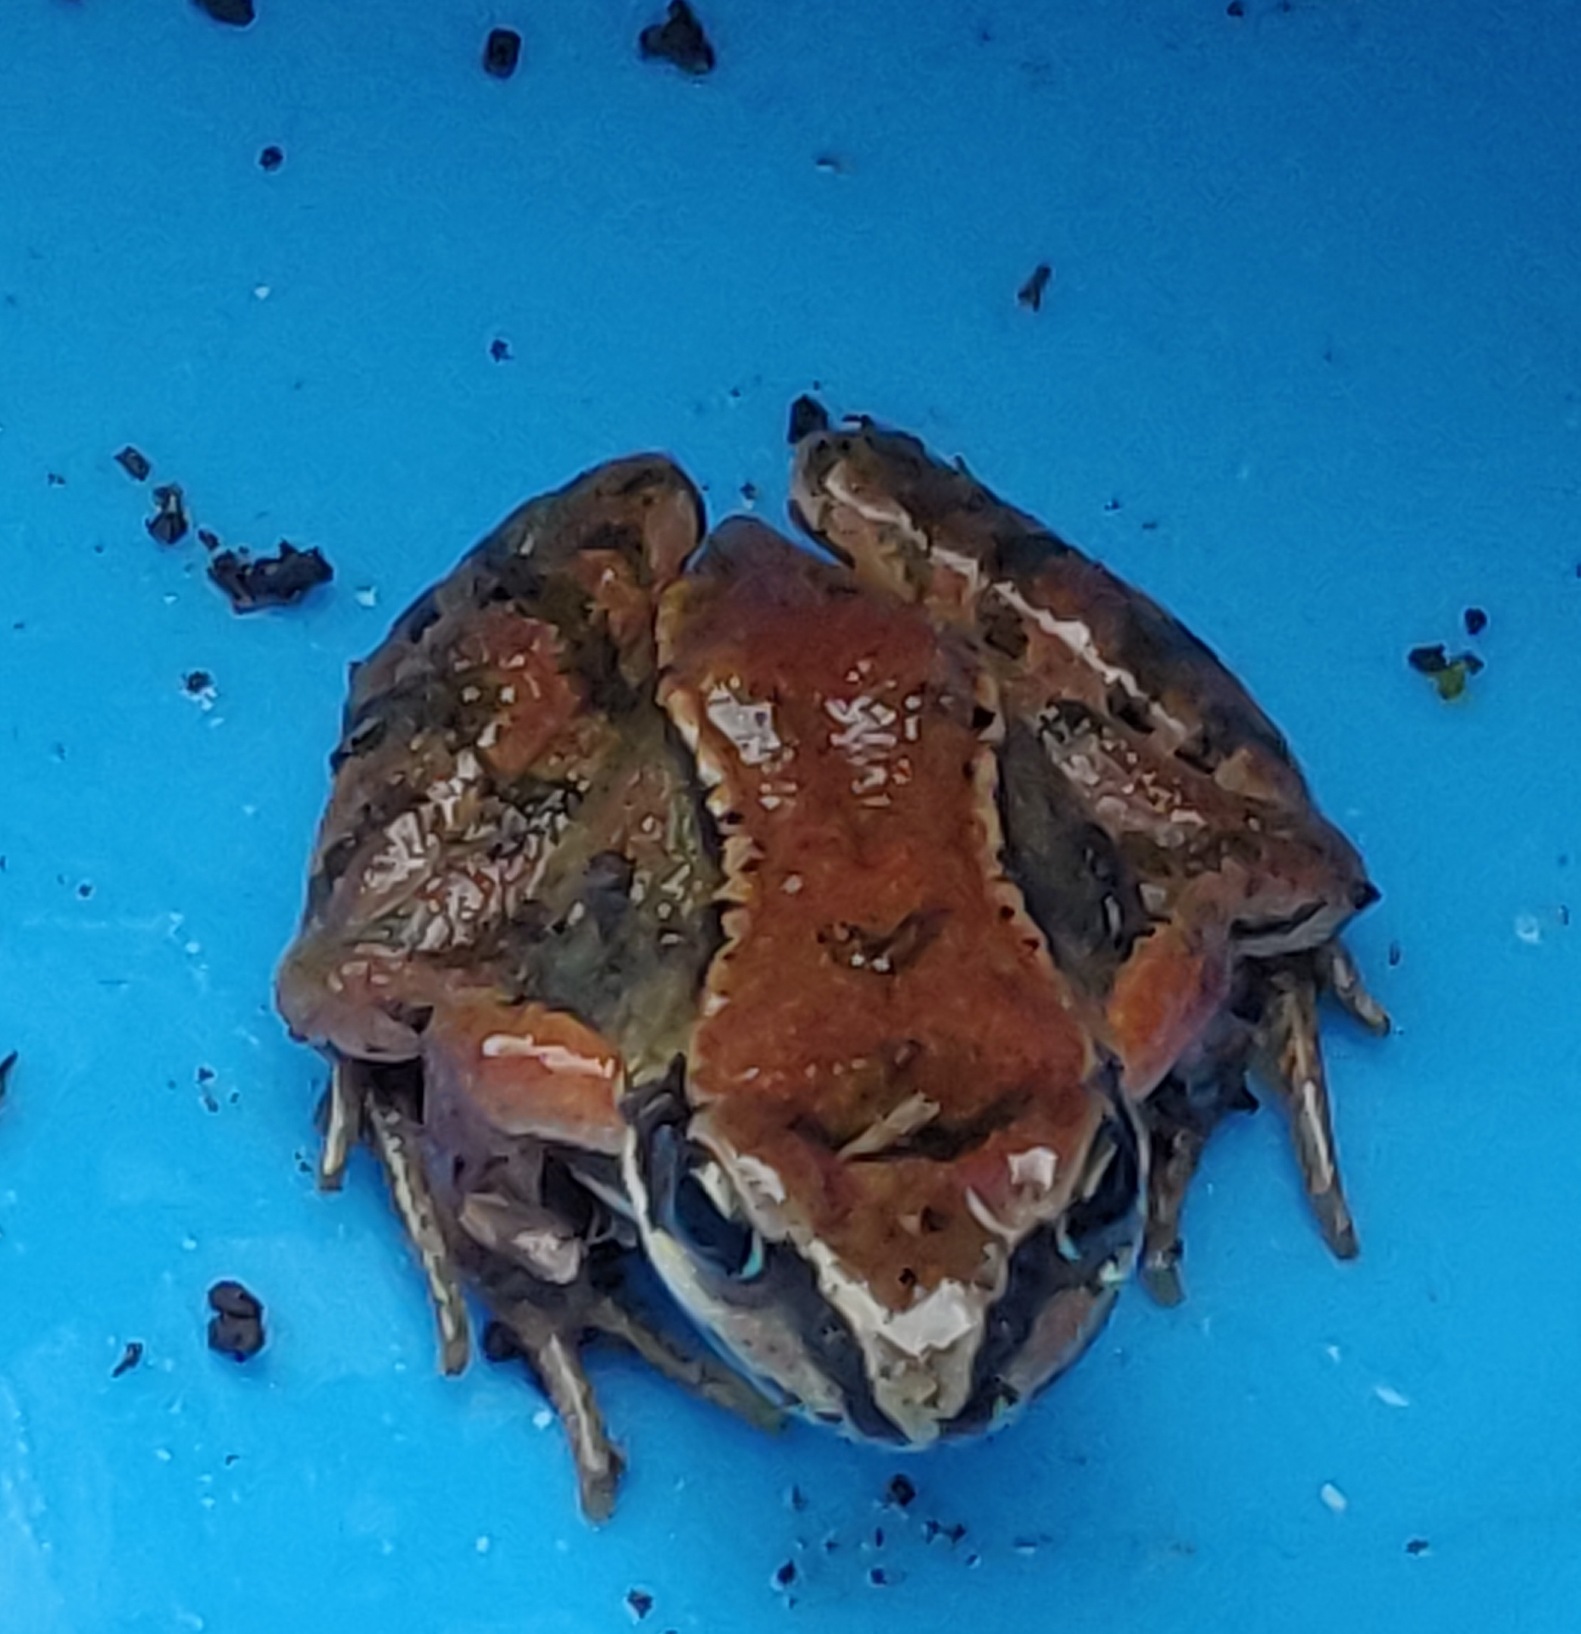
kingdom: Animalia
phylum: Chordata
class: Amphibia
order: Anura
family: Ranidae
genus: Rana
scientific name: Rana temporaria
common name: Butsnudet frø
